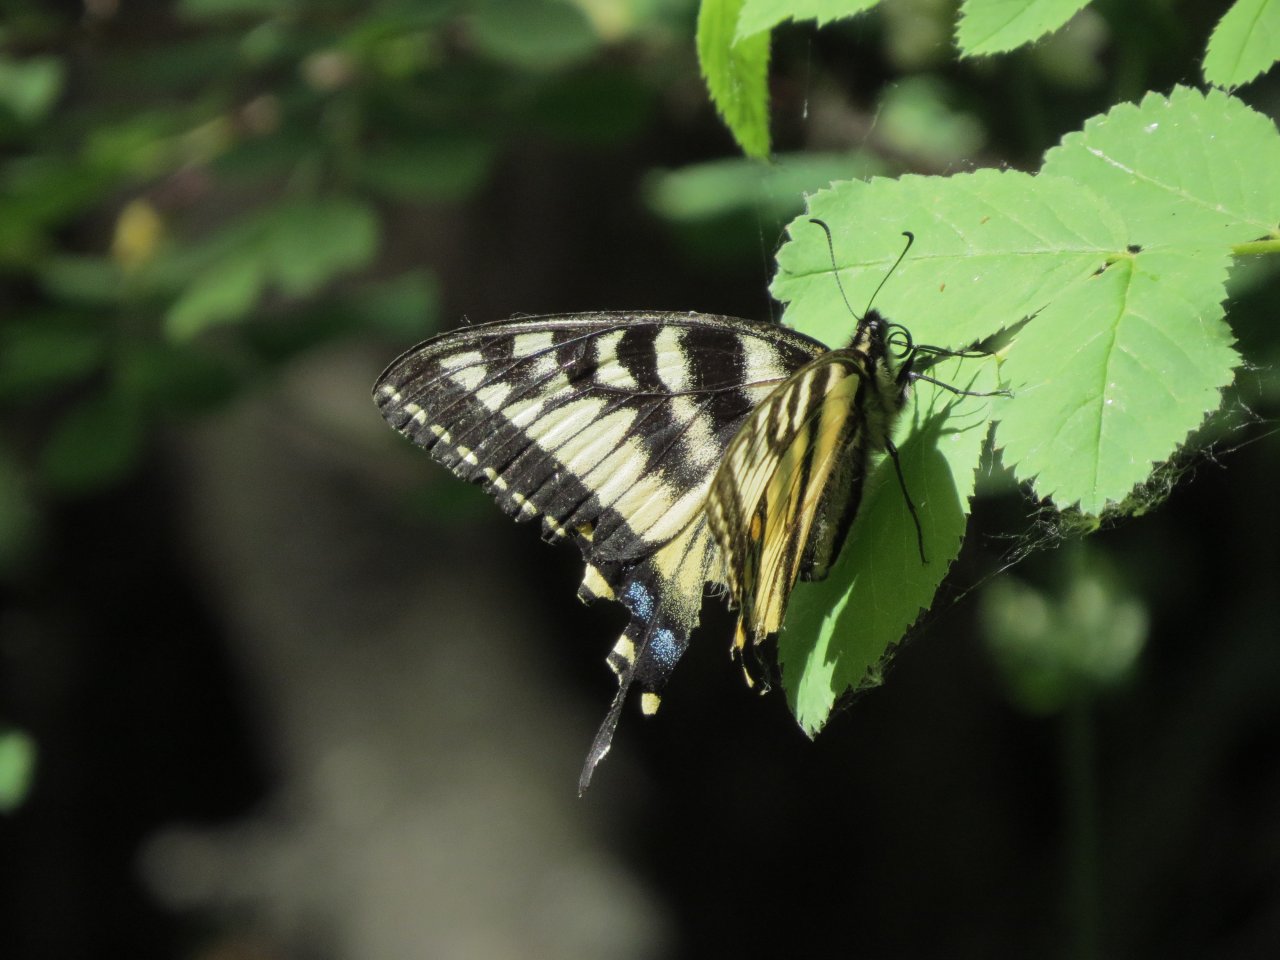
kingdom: Animalia
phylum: Arthropoda
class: Insecta
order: Lepidoptera
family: Papilionidae
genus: Pterourus
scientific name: Pterourus canadensis
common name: Canadian Tiger Swallowtail
